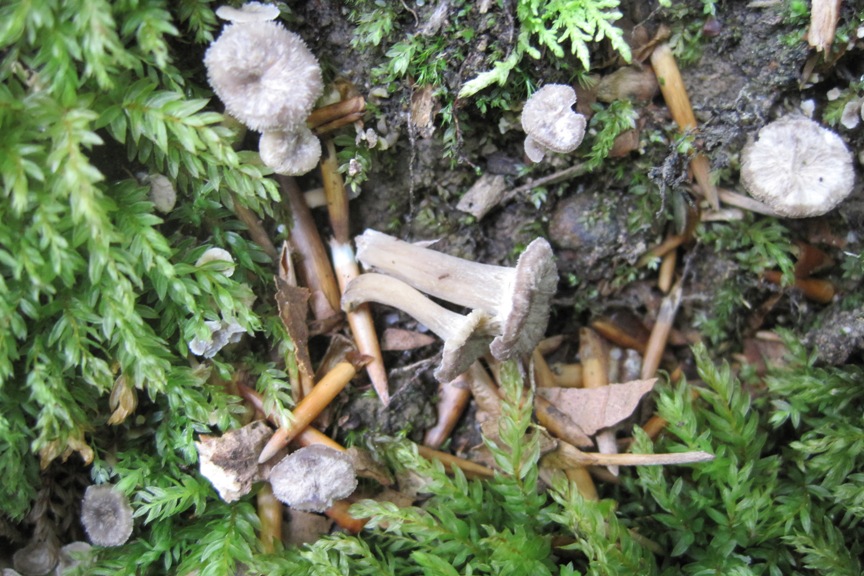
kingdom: Fungi
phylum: Basidiomycota
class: Agaricomycetes
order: Cantharellales
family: Hydnaceae
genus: Craterellus
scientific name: Craterellus undulatus
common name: liden kantarel
